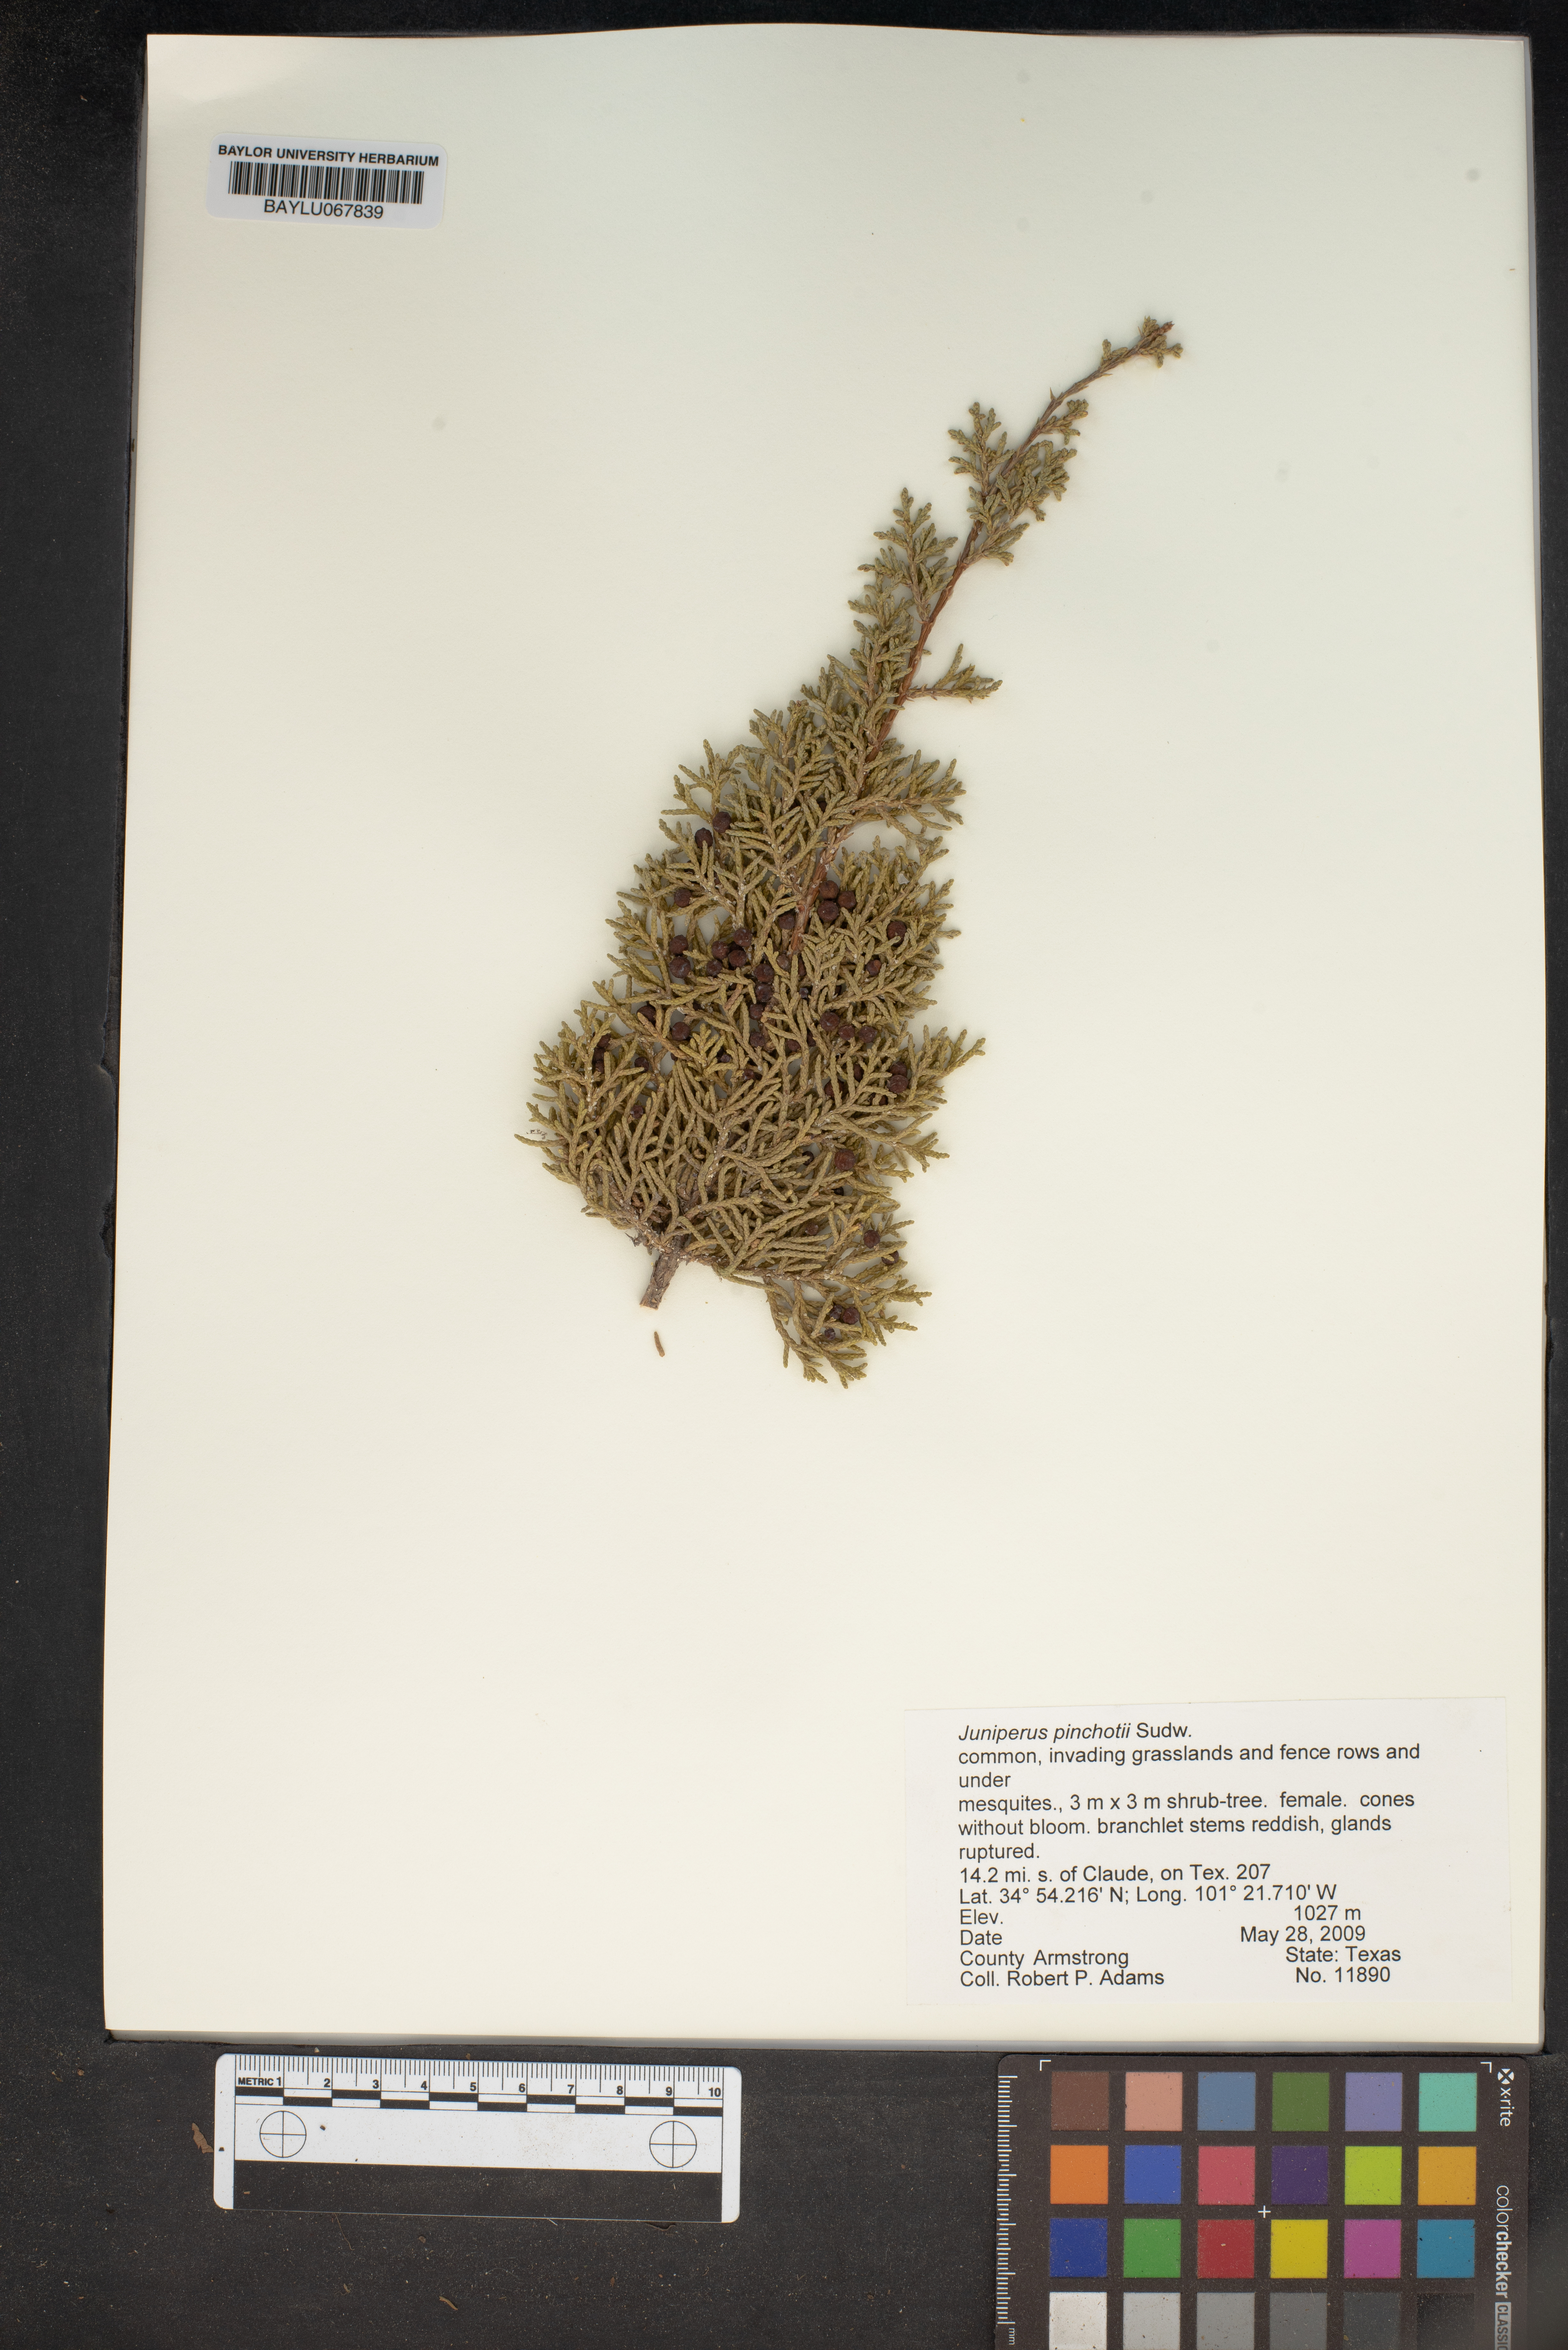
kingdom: Plantae
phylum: Tracheophyta
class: Pinopsida
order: Pinales
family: Cupressaceae
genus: Juniperus
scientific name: Juniperus pinchotii
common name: Pinchot juniper
